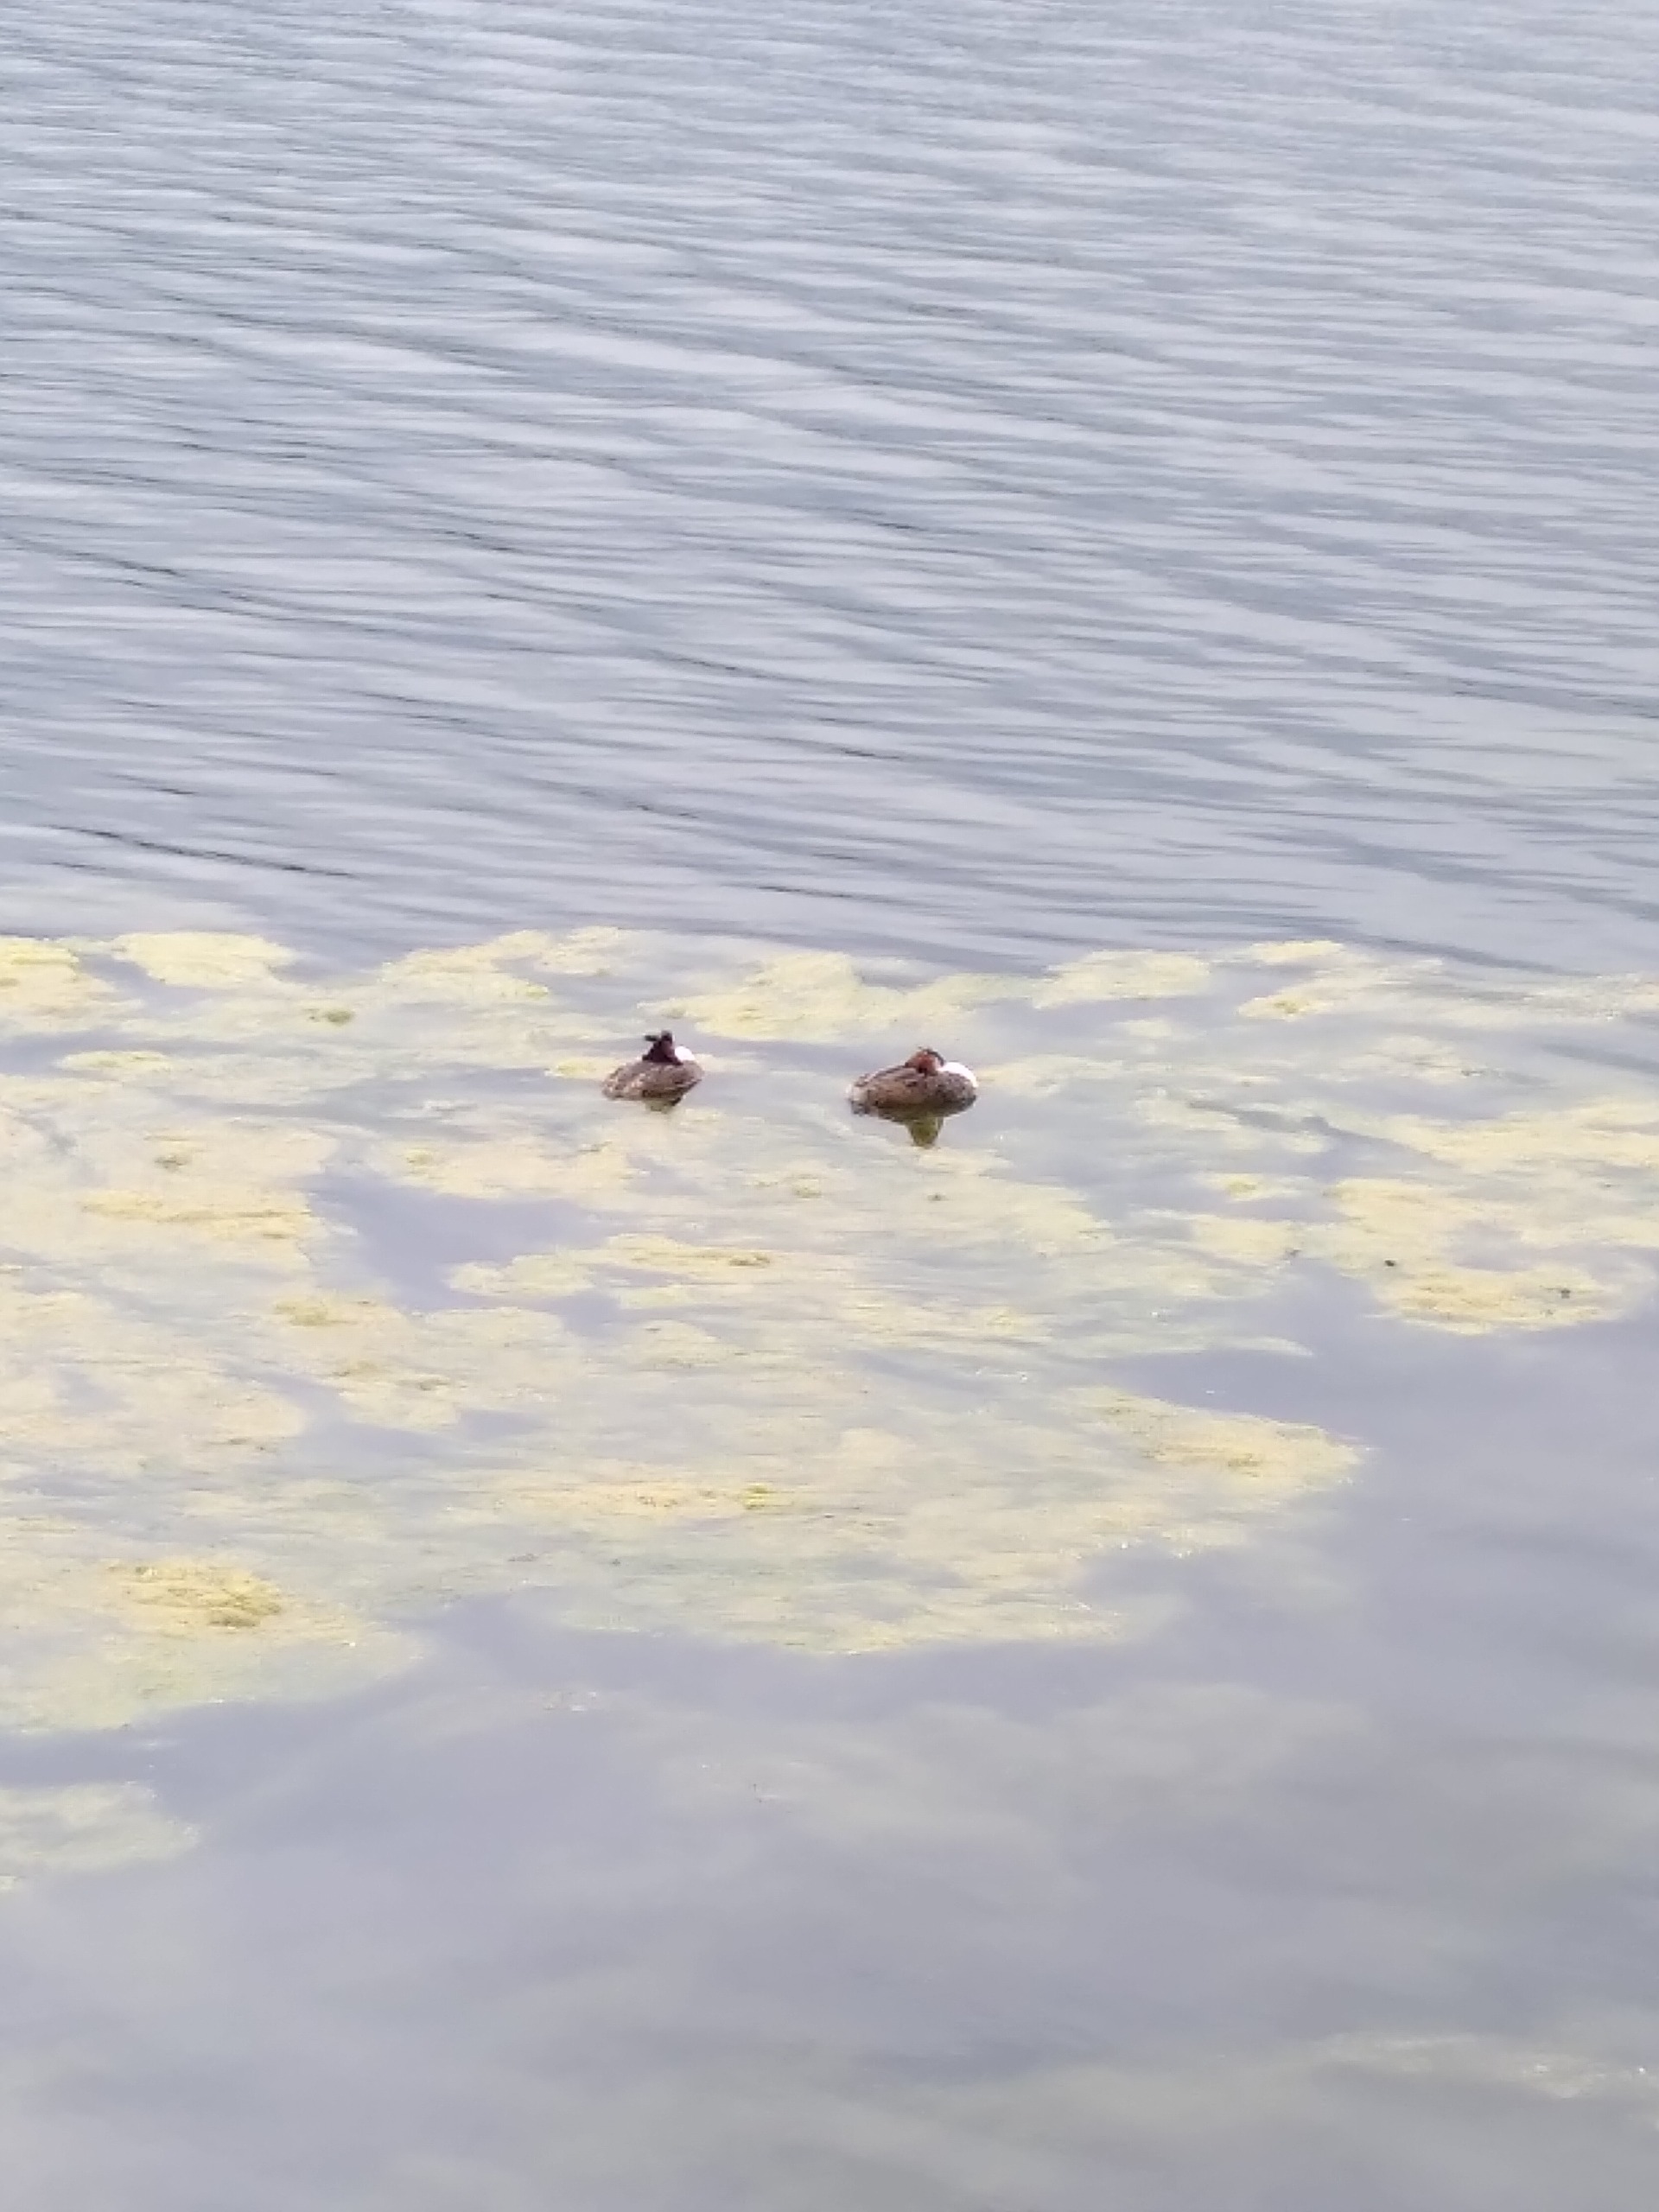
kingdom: Animalia
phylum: Chordata
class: Aves
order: Podicipediformes
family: Podicipedidae
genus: Podiceps
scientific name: Podiceps cristatus
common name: Toppet lappedykker
